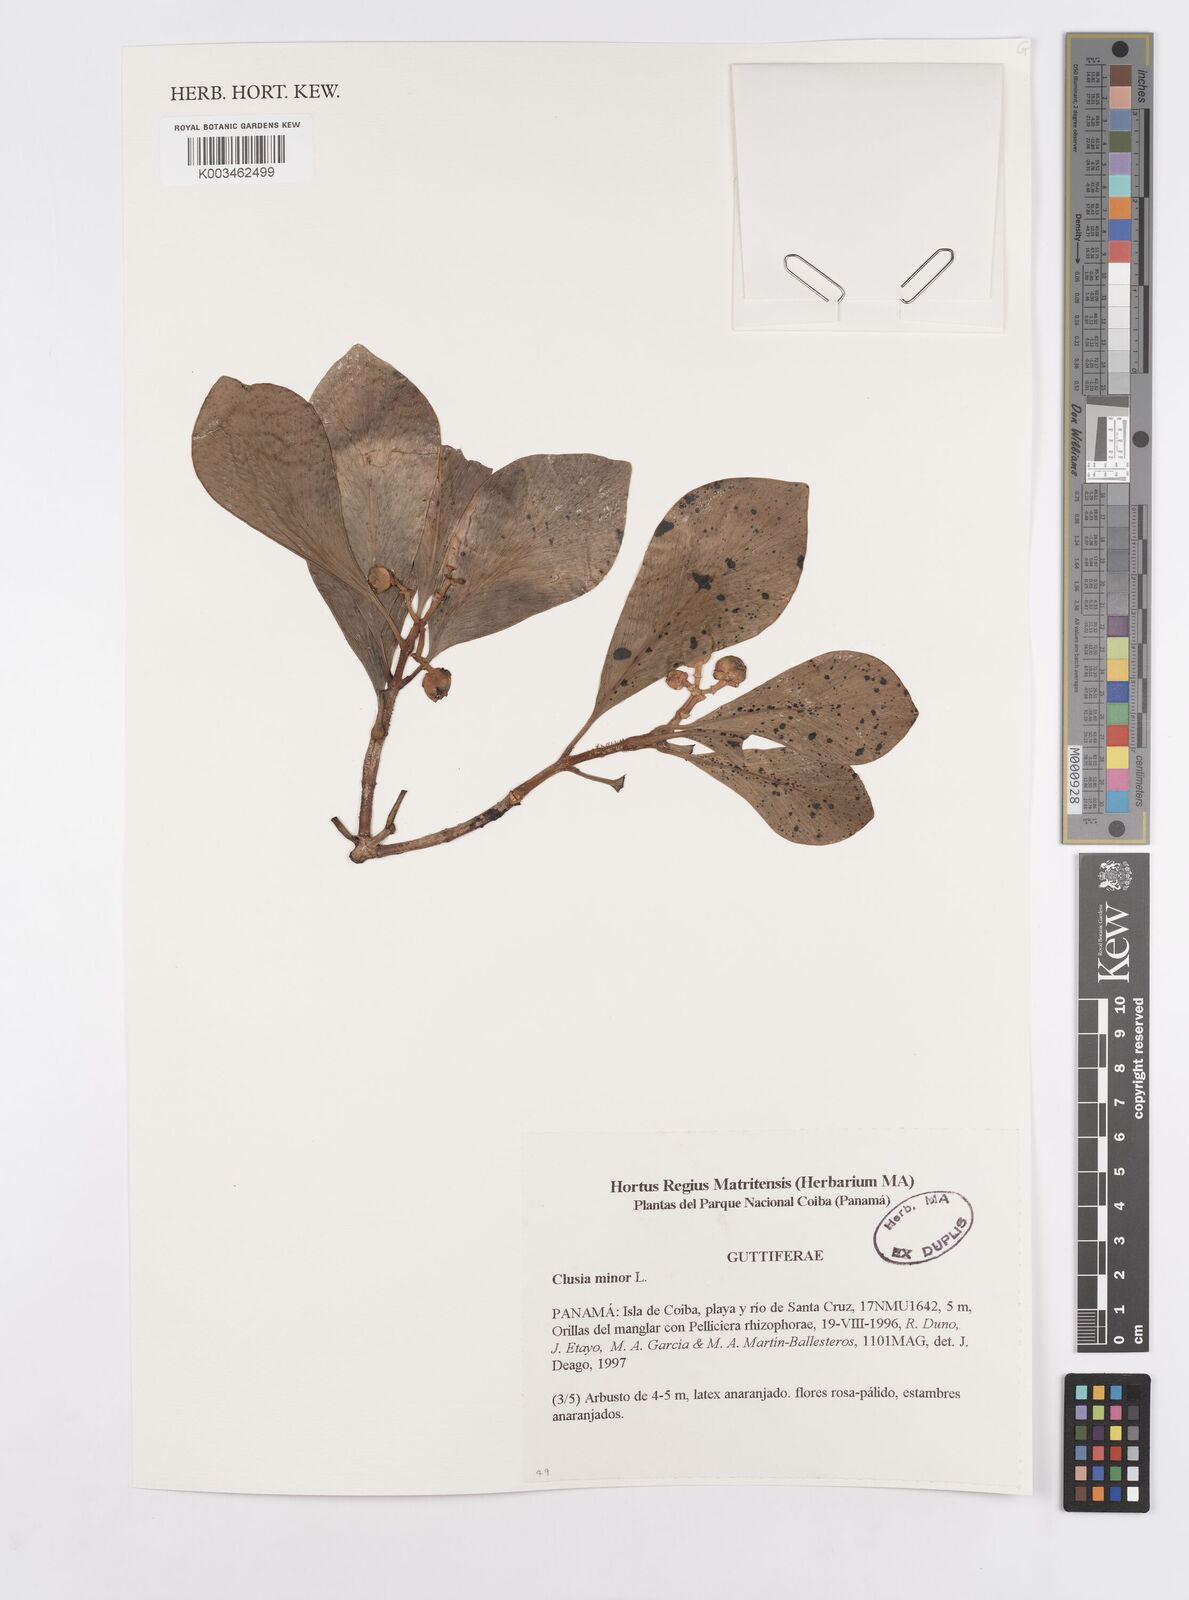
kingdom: Plantae
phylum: Tracheophyta
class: Magnoliopsida
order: Malpighiales
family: Clusiaceae
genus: Clusia
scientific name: Clusia minor
